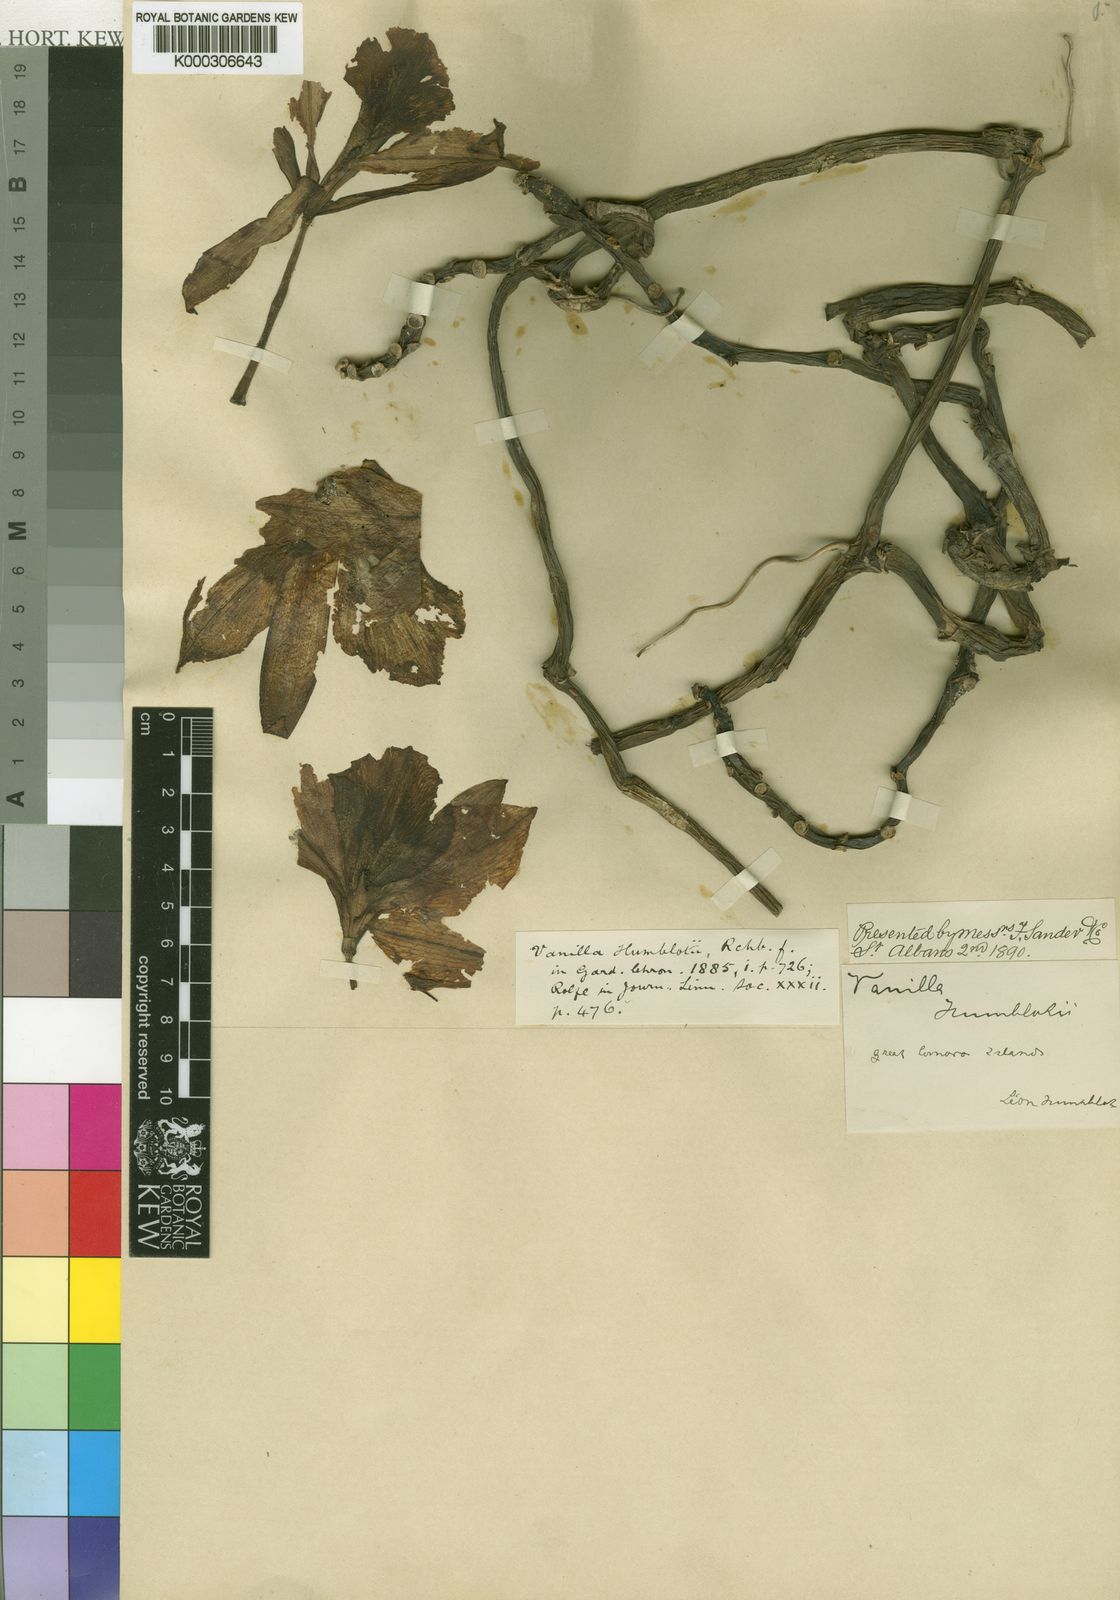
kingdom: Plantae
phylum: Tracheophyta
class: Liliopsida
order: Asparagales
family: Orchidaceae
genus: Vanilla
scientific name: Vanilla humblotii
